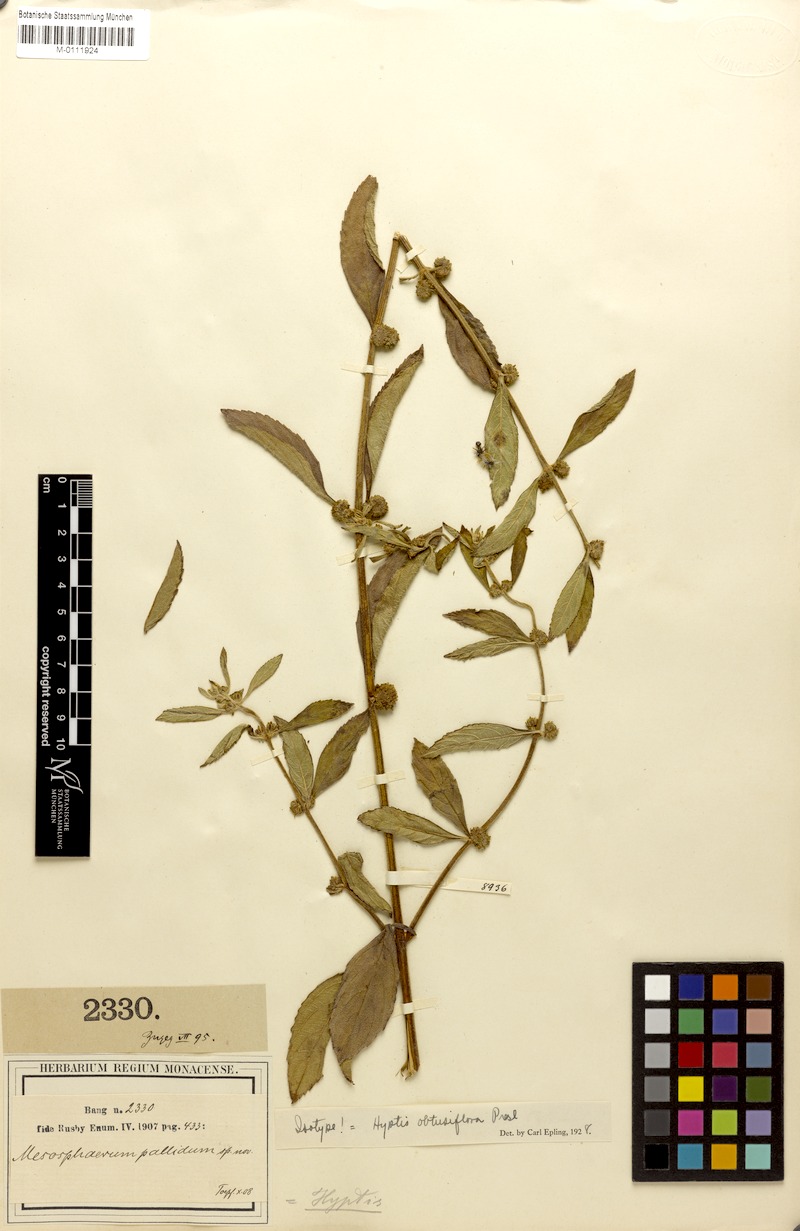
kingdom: Plantae
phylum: Tracheophyta
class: Magnoliopsida
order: Lamiales
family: Lamiaceae
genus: Hyptis
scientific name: Hyptis obtusiflora
